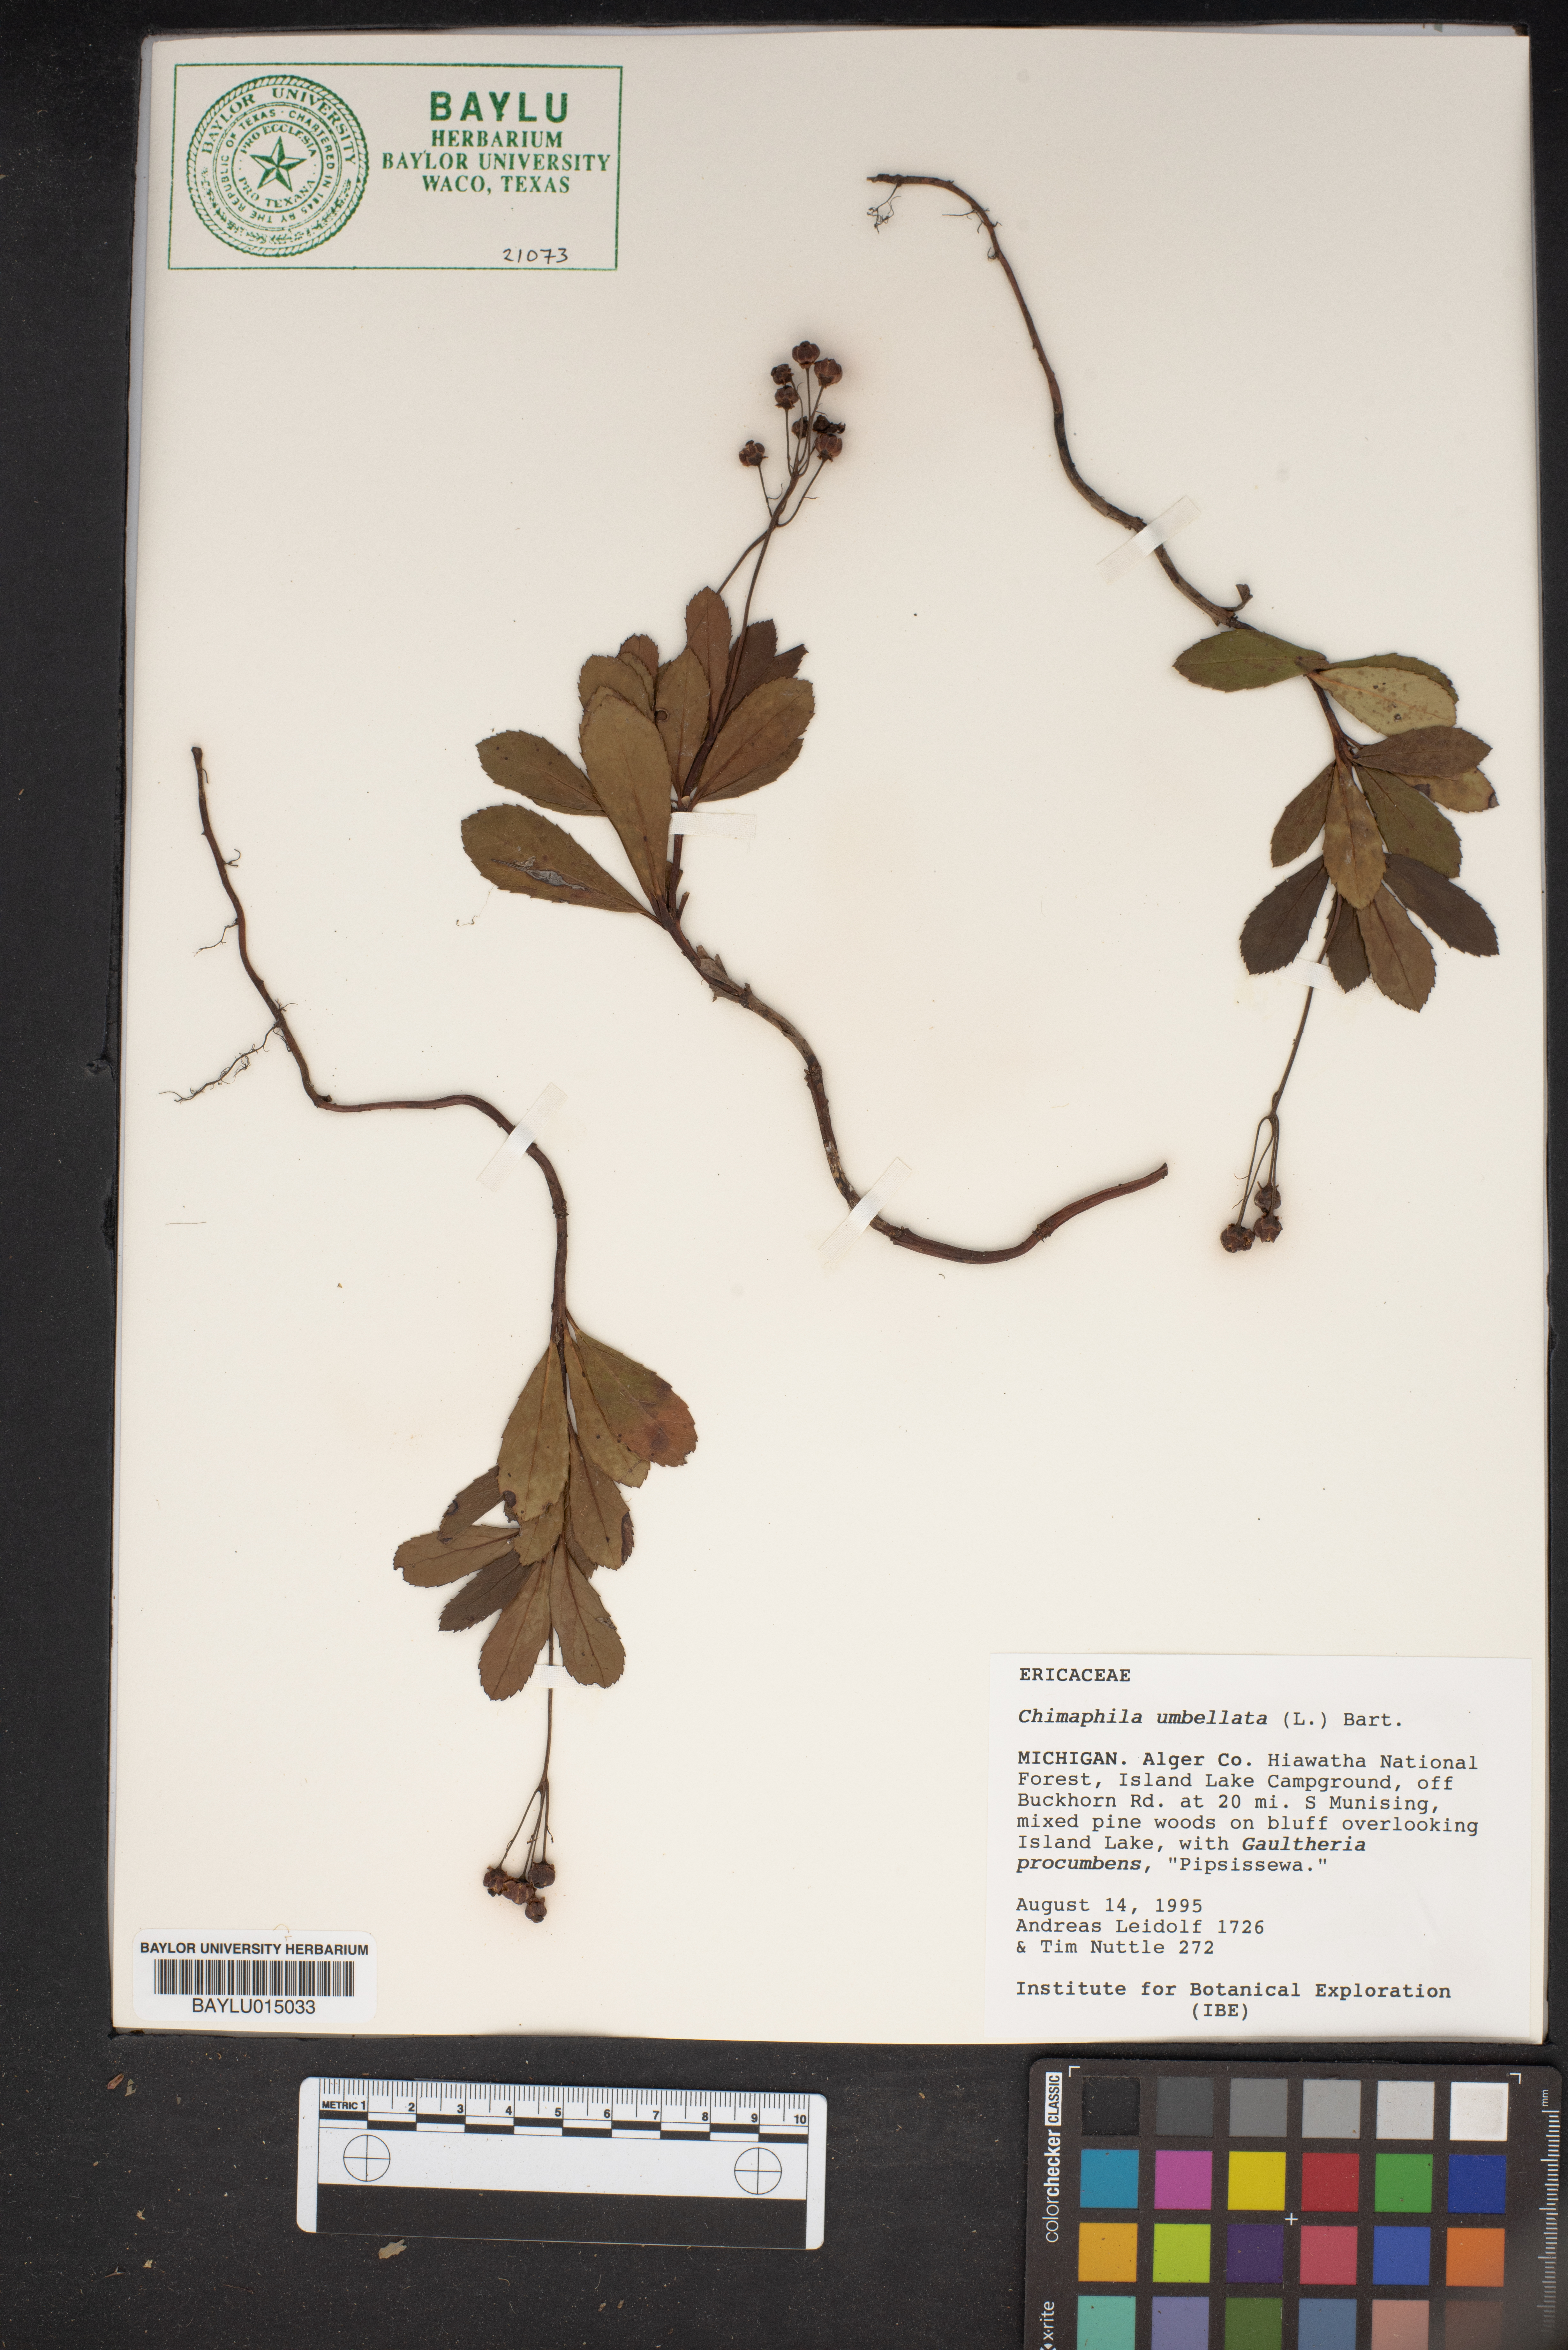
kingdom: Plantae
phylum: Tracheophyta
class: Magnoliopsida
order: Ericales
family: Ericaceae
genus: Chimaphila
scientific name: Chimaphila umbellata
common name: Pipsissewa
